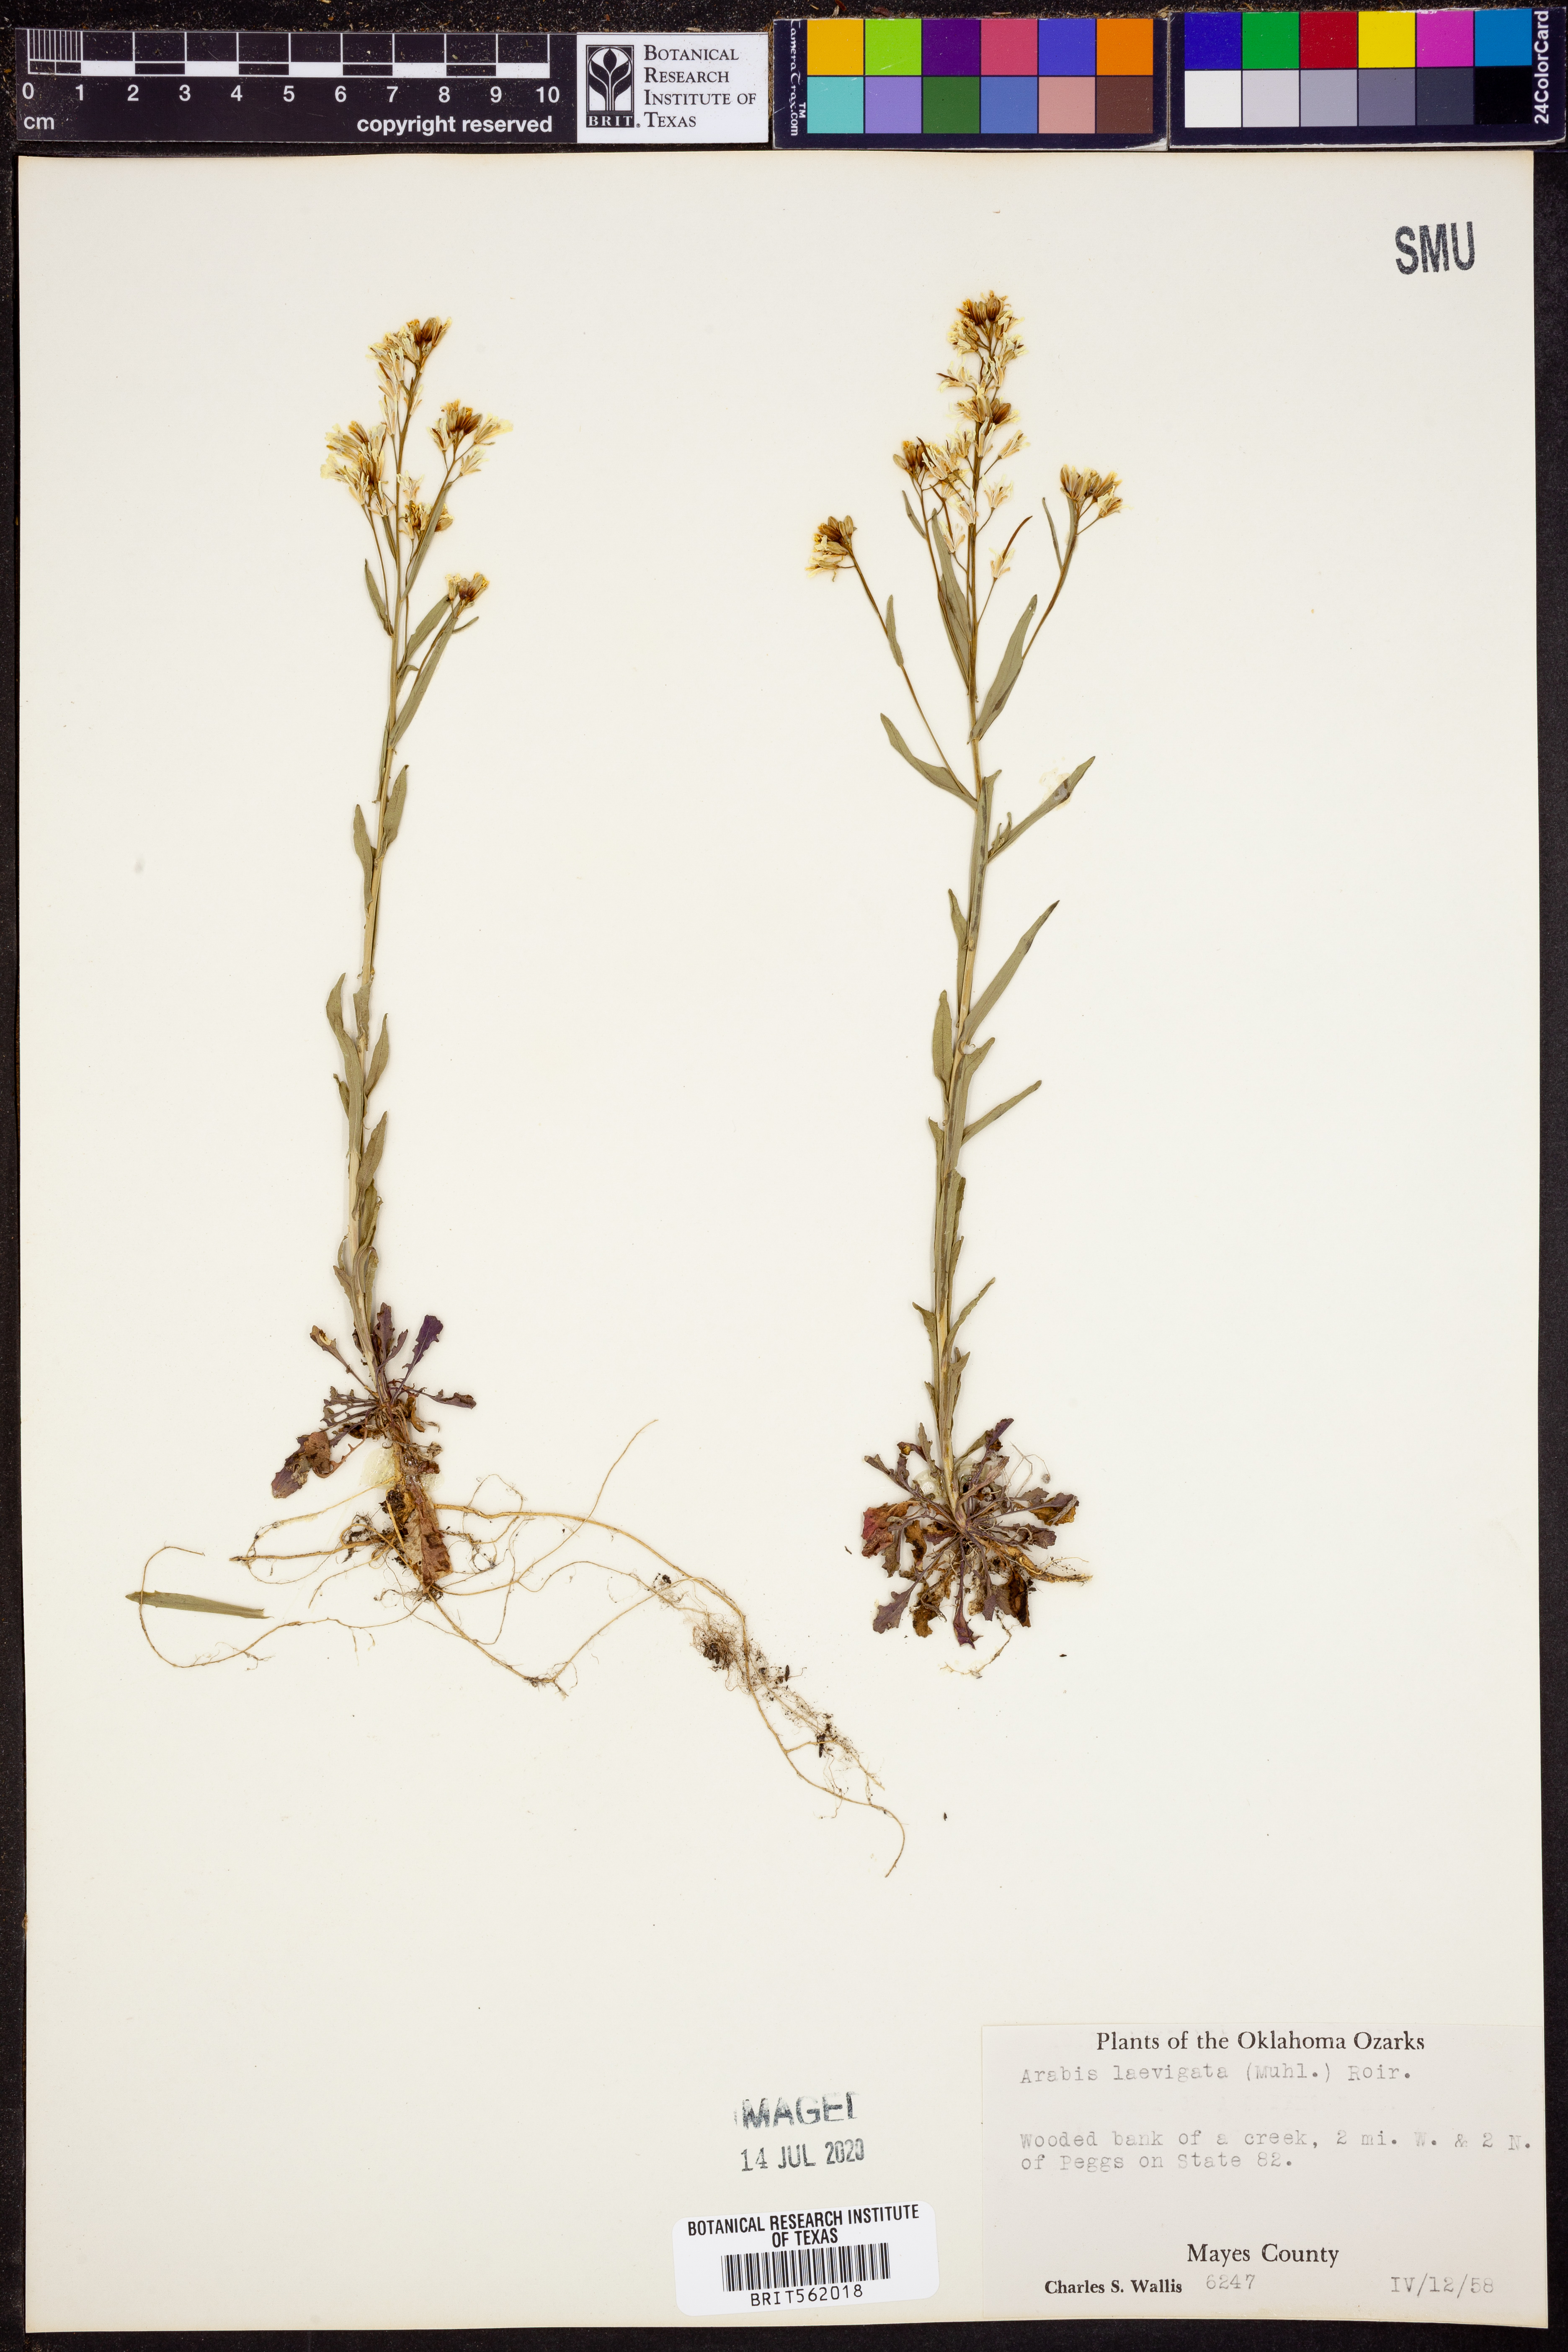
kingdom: Plantae
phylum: Tracheophyta
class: Magnoliopsida
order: Brassicales
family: Brassicaceae
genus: Arabis
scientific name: Arabis laevigata
